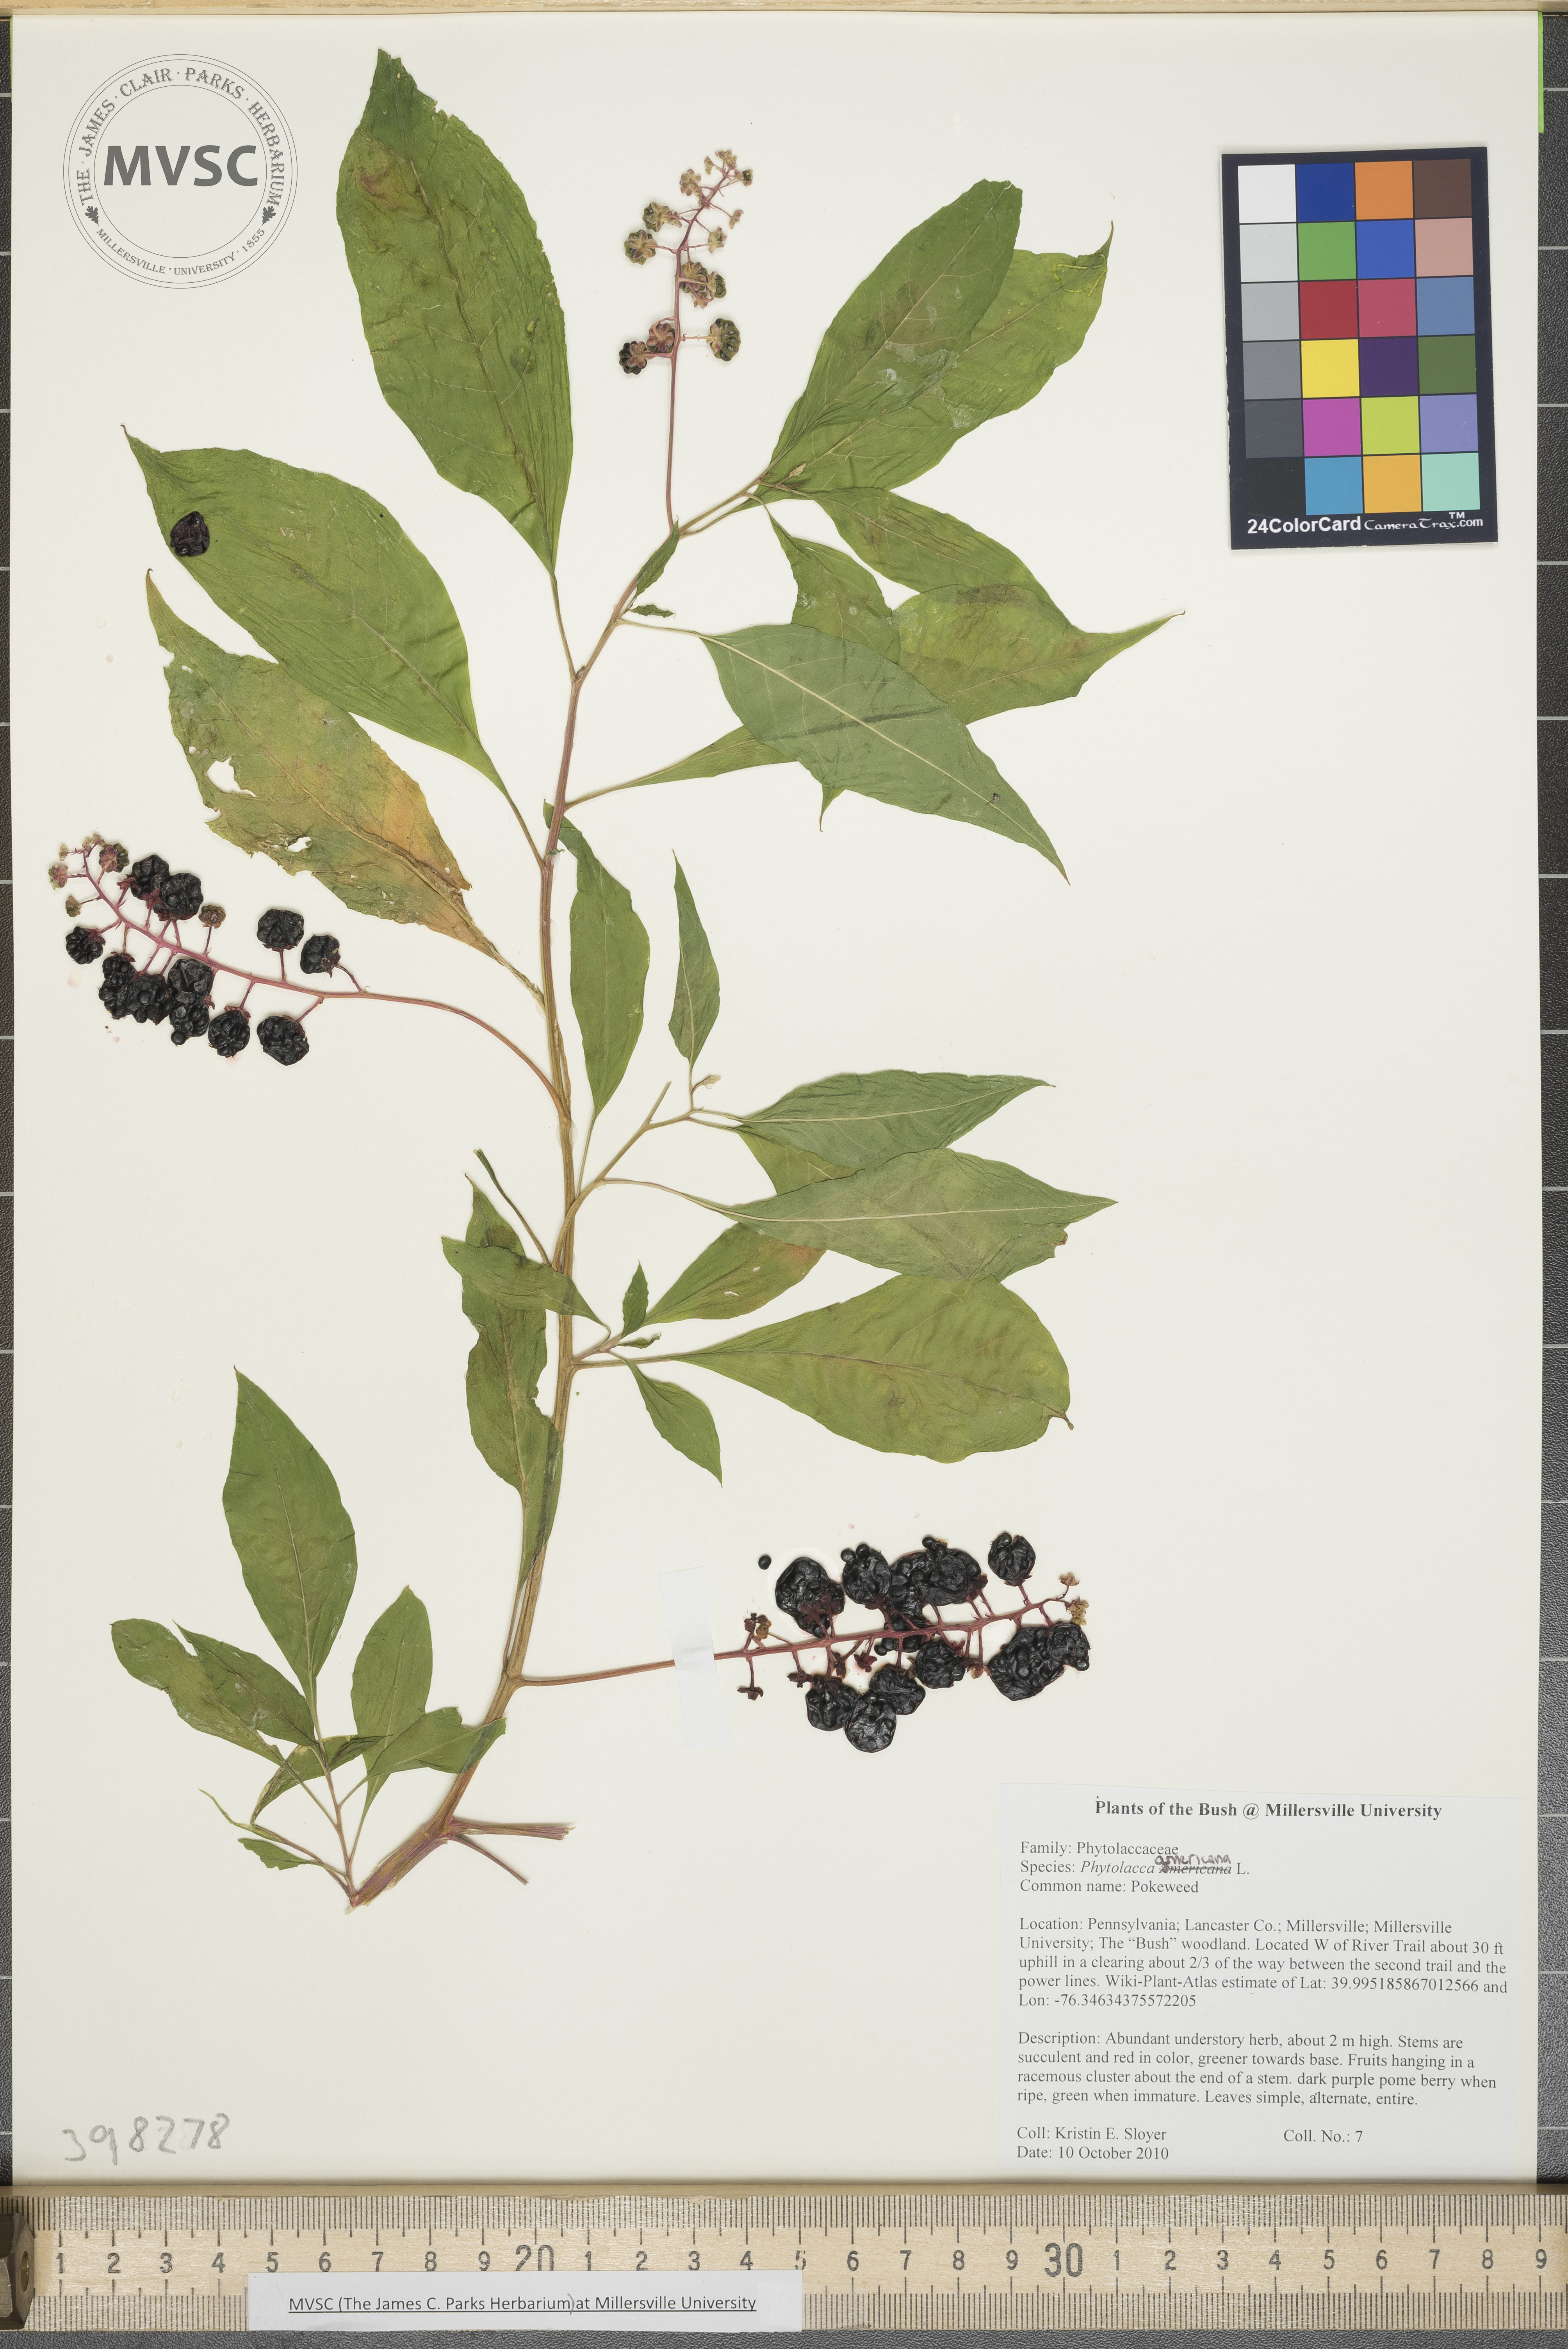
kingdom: Plantae
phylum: Tracheophyta
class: Magnoliopsida
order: Caryophyllales
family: Phytolaccaceae
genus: Phytolacca
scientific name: Phytolacca americana
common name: Pokeweed
